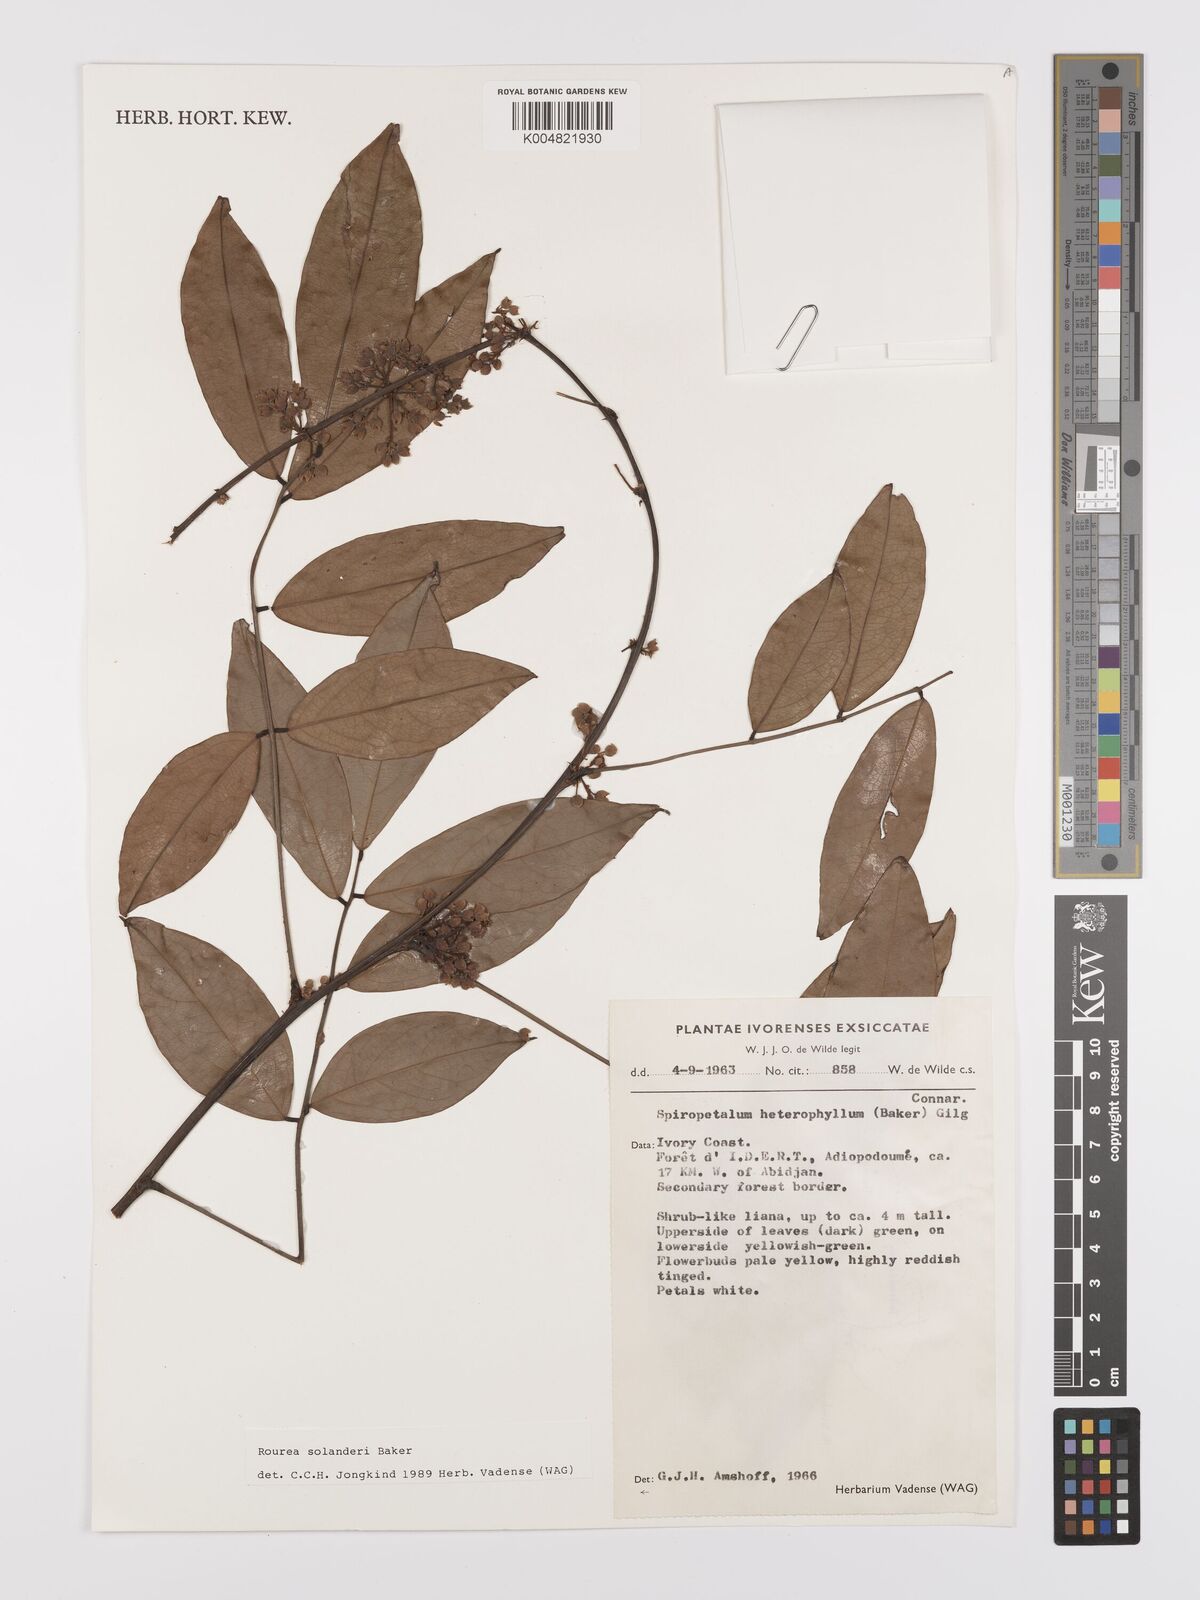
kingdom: Plantae
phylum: Tracheophyta
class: Magnoliopsida
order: Oxalidales
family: Connaraceae
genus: Rourea
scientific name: Rourea solanderi
